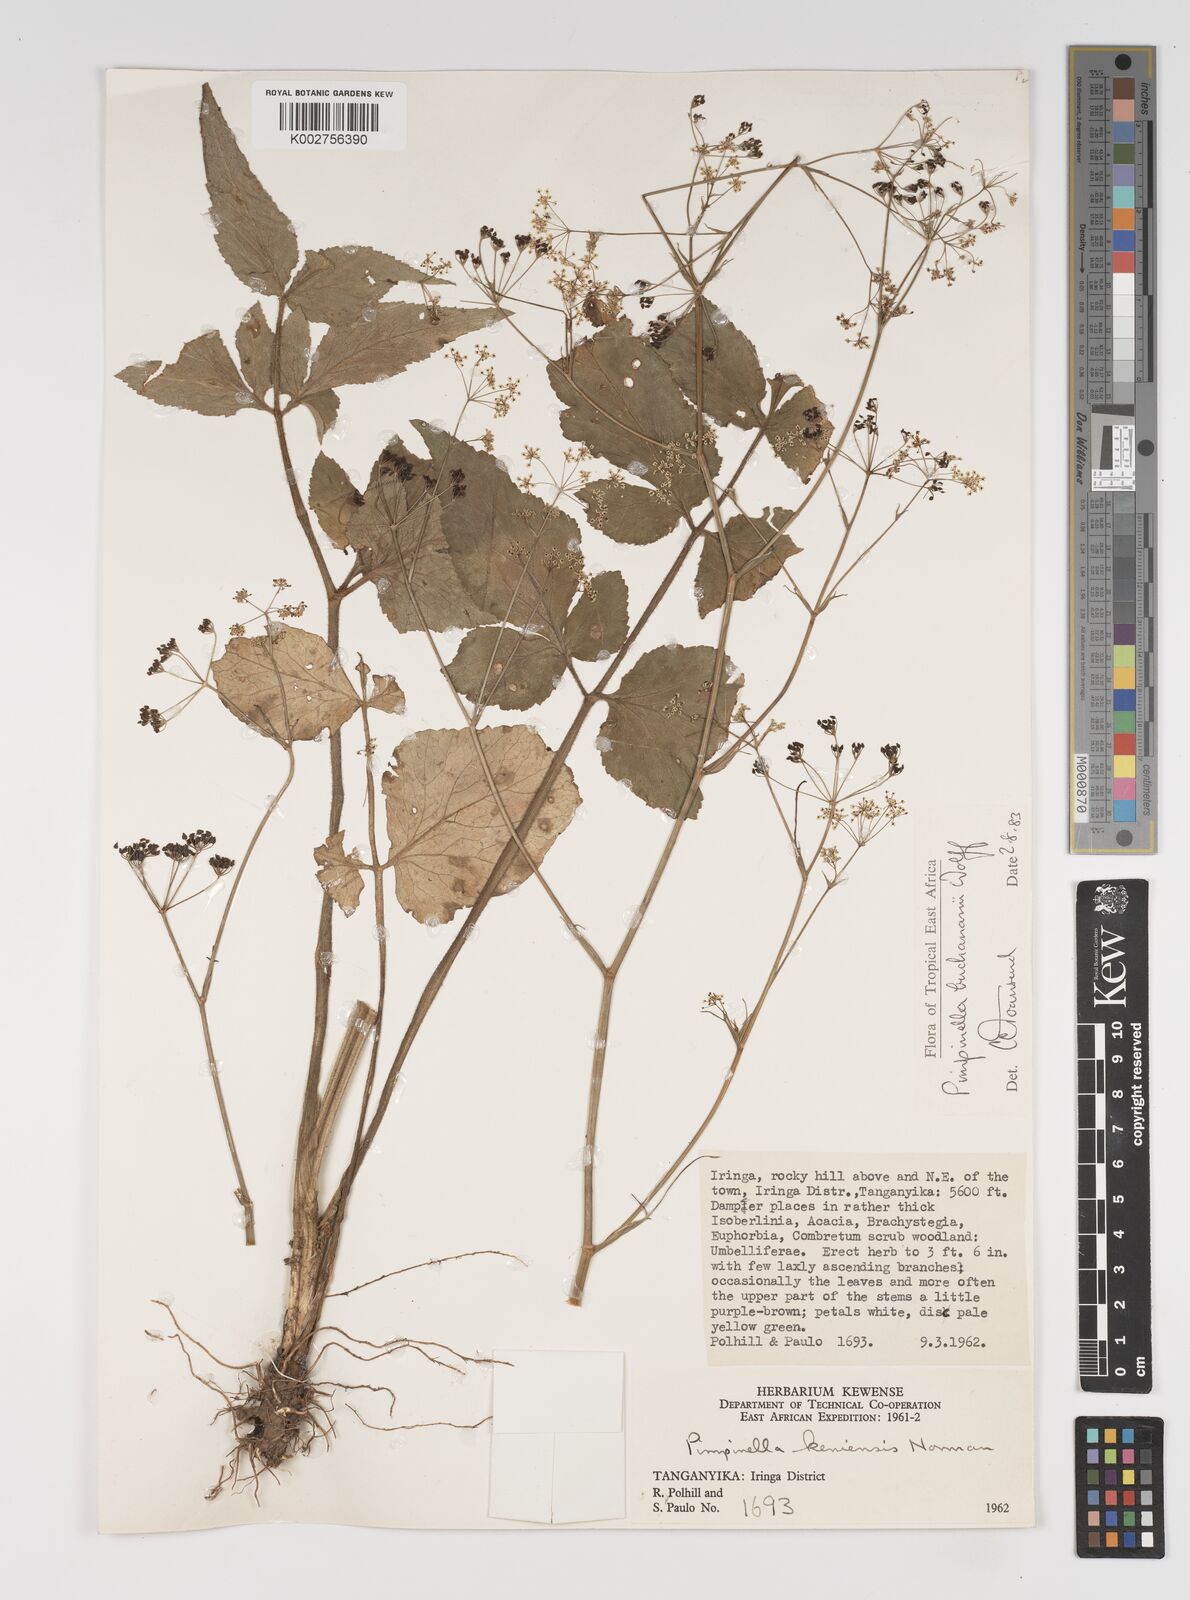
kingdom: Plantae
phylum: Tracheophyta
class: Magnoliopsida
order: Apiales
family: Apiaceae
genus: Pimpinella
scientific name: Pimpinella buchananii
